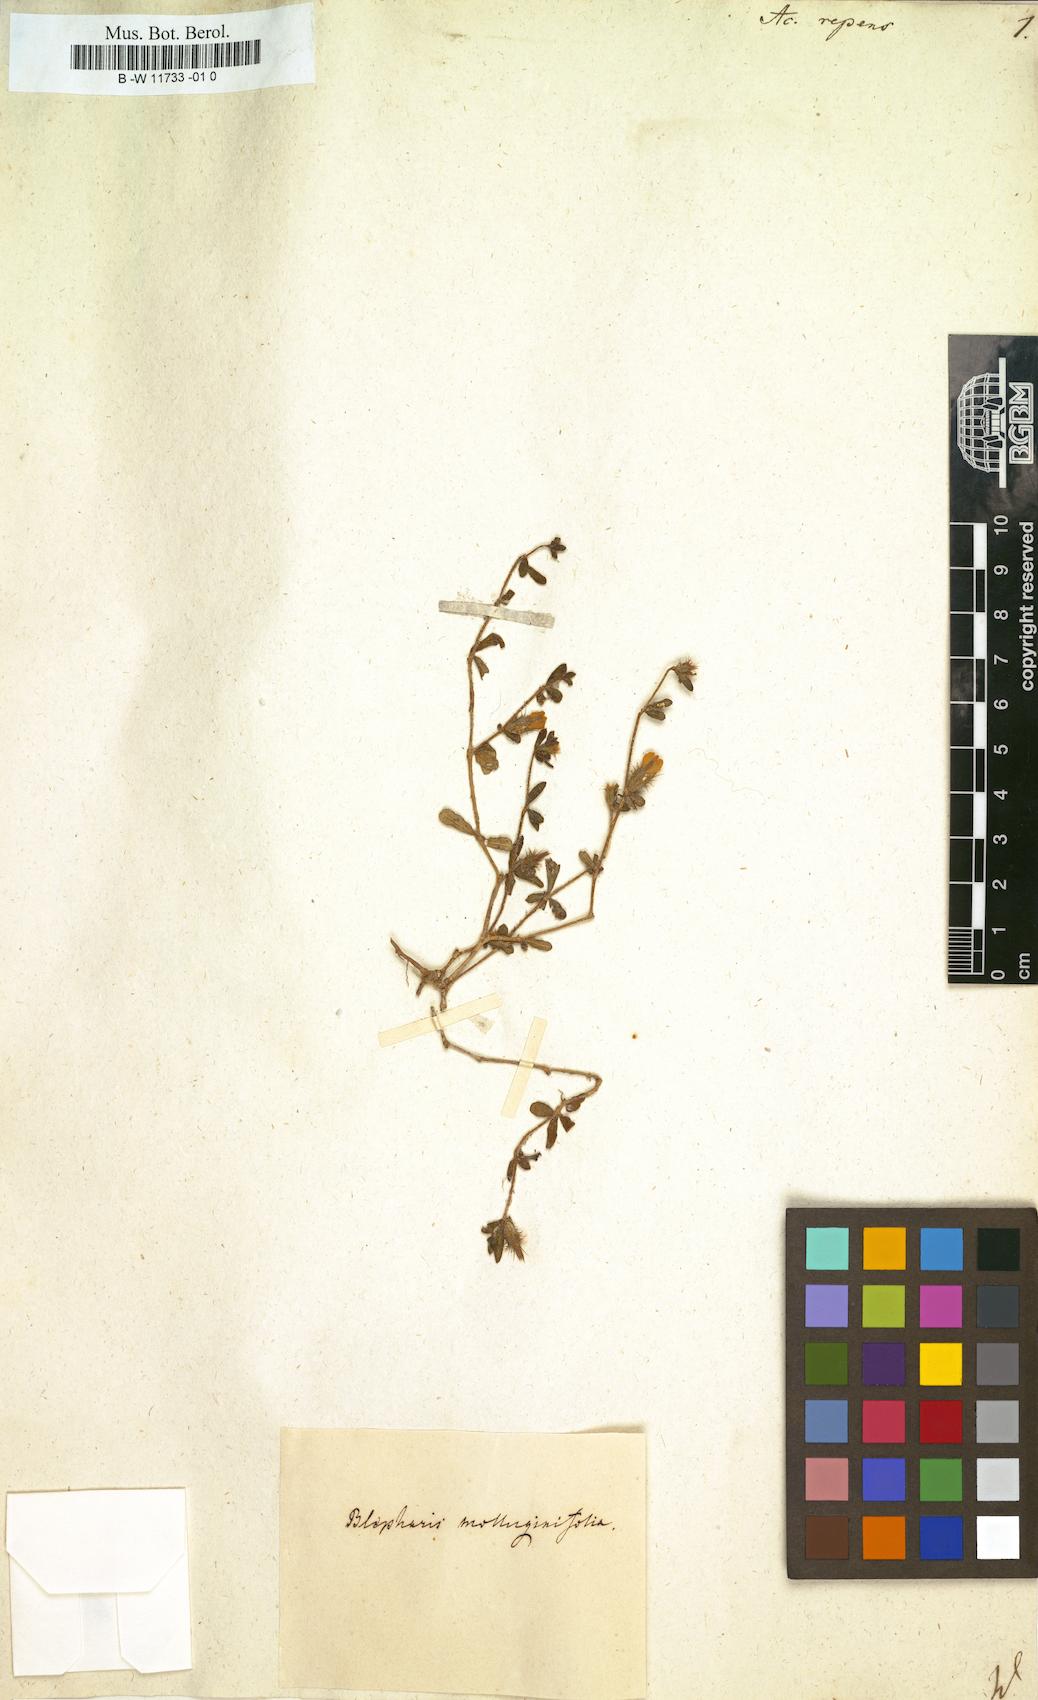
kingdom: Plantae
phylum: Tracheophyta
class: Magnoliopsida
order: Lamiales
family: Acanthaceae
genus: Blepharis
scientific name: Blepharis integrifolia
